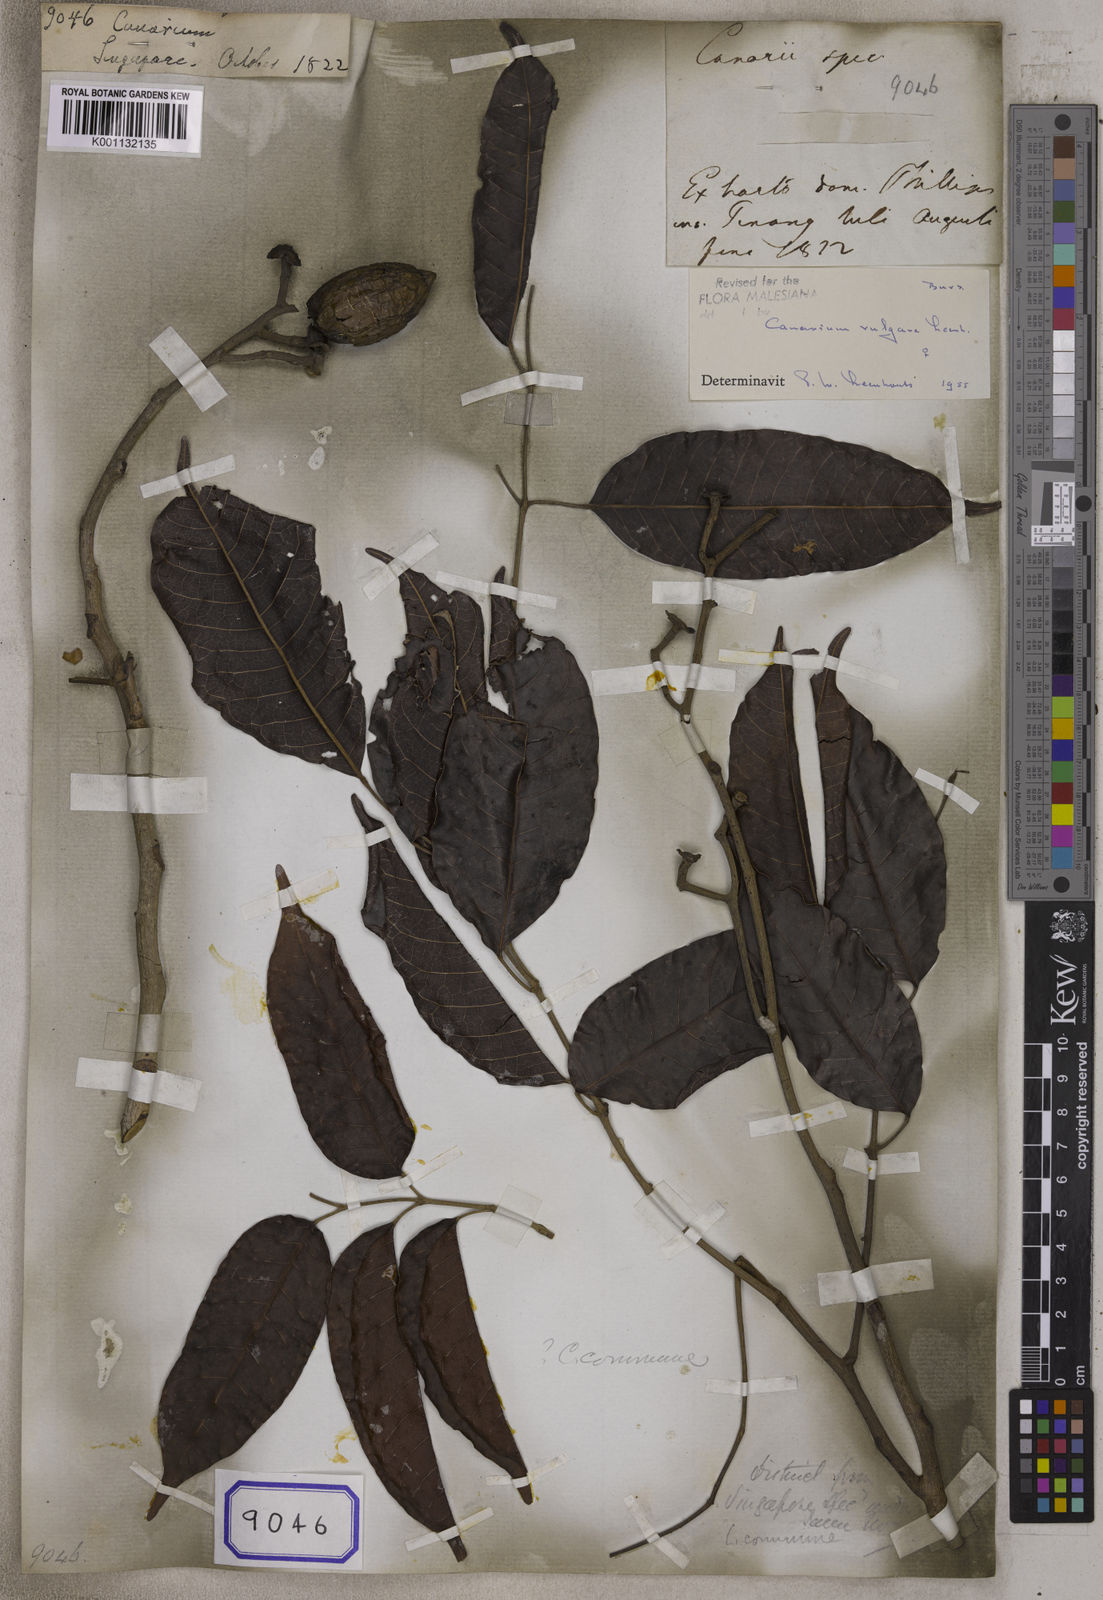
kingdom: Plantae
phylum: Tracheophyta
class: Magnoliopsida
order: Sapindales
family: Burseraceae
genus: Canarium
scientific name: Canarium
